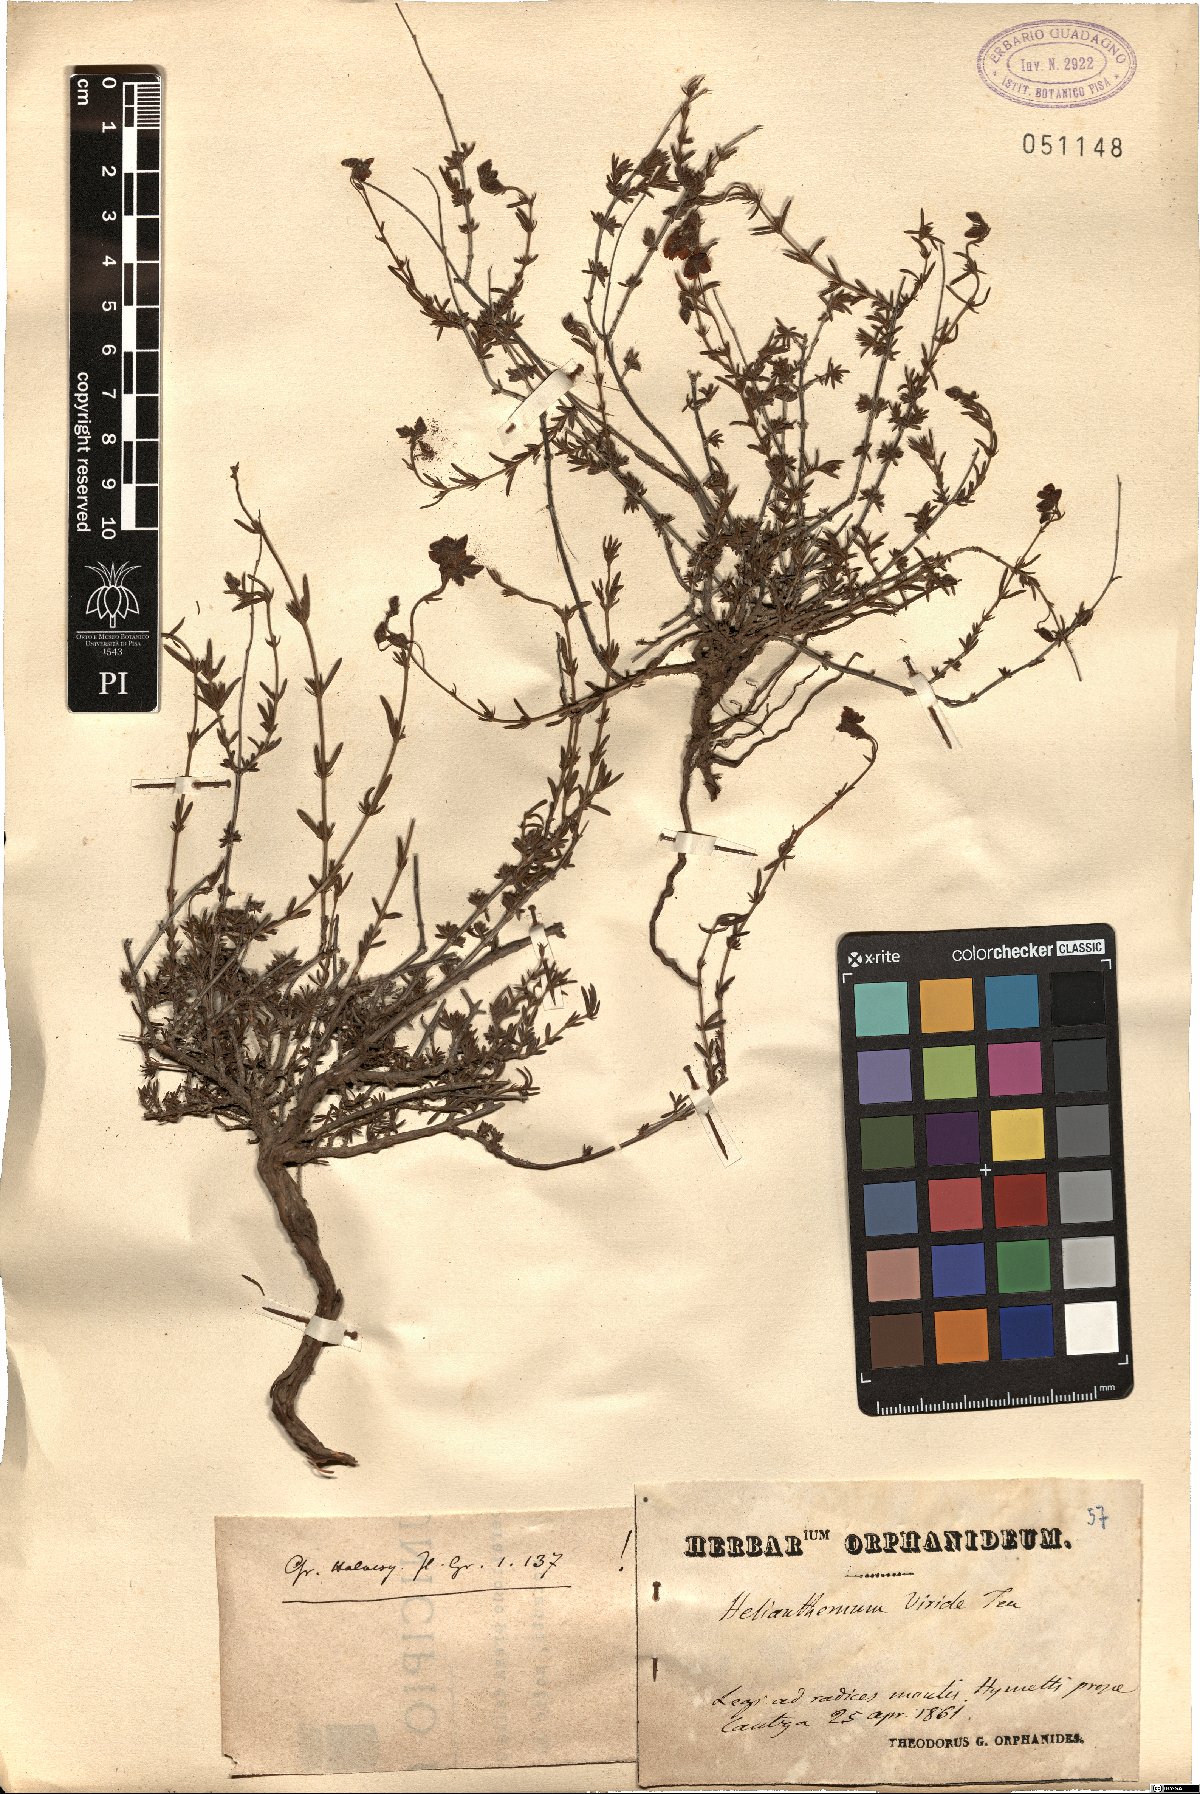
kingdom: Plantae
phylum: Tracheophyta
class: Magnoliopsida
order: Malvales
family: Cistaceae
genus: Fumana
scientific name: Fumana laevis
